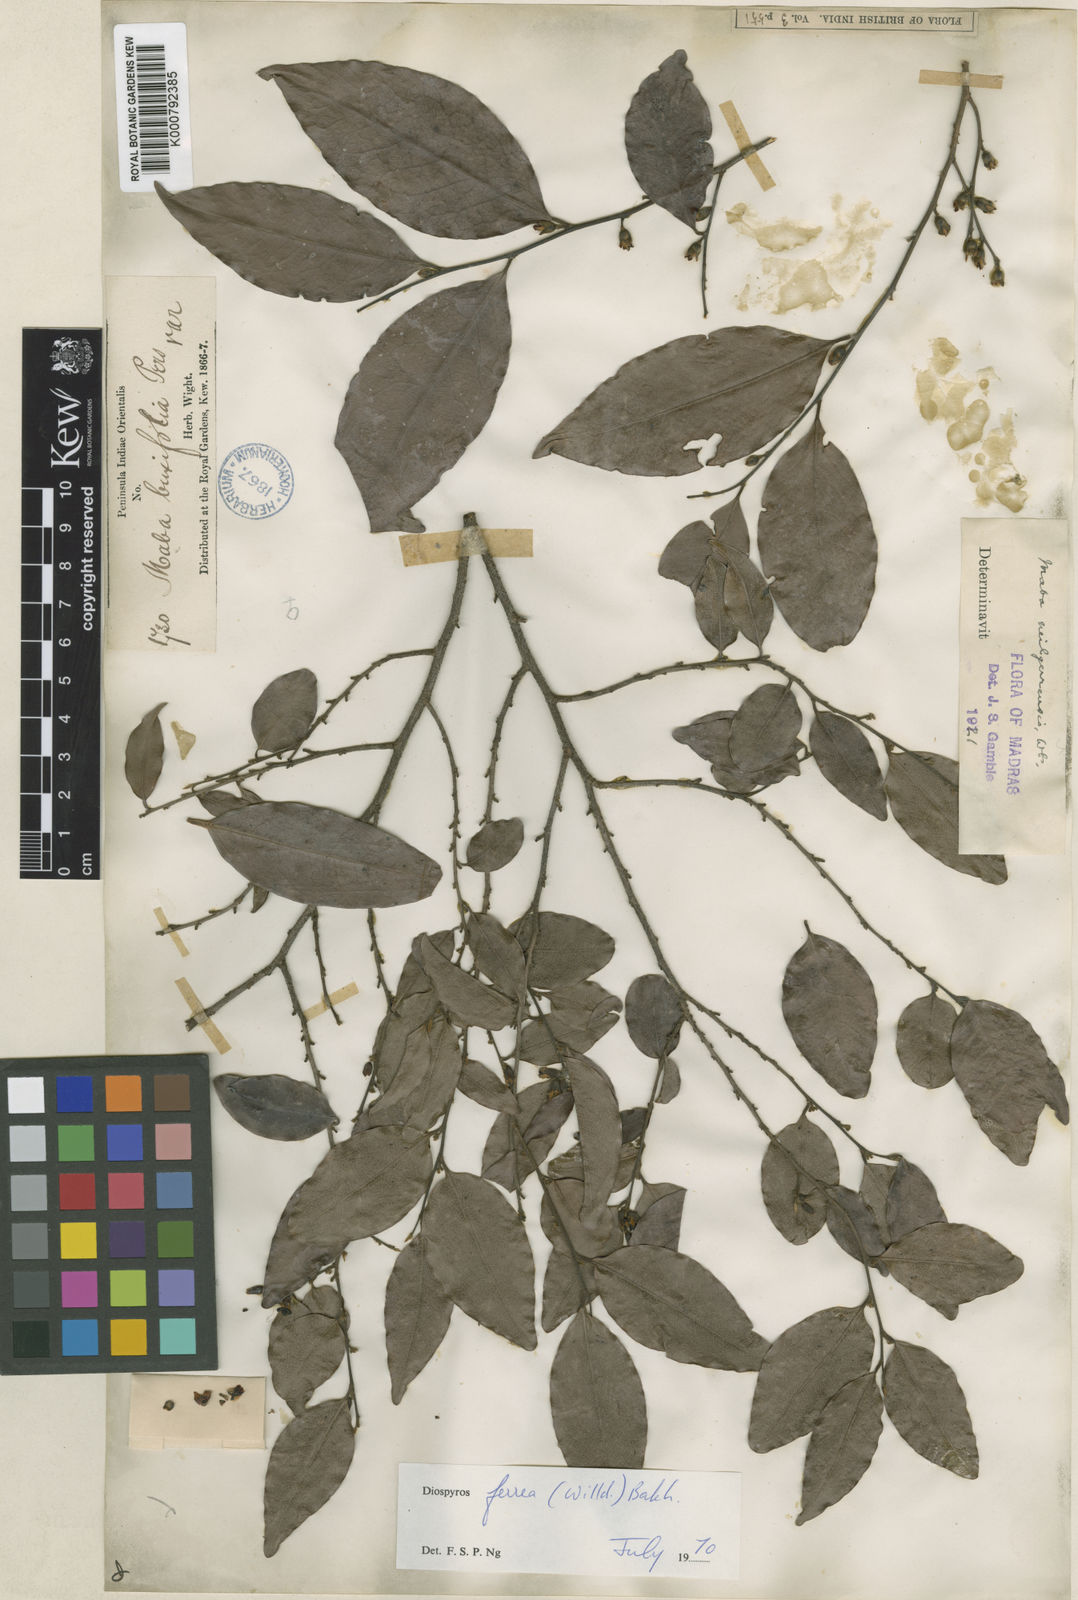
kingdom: Plantae
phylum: Tracheophyta
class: Magnoliopsida
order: Ericales
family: Ebenaceae
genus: Diospyros
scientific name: Diospyros neilgerrensis
